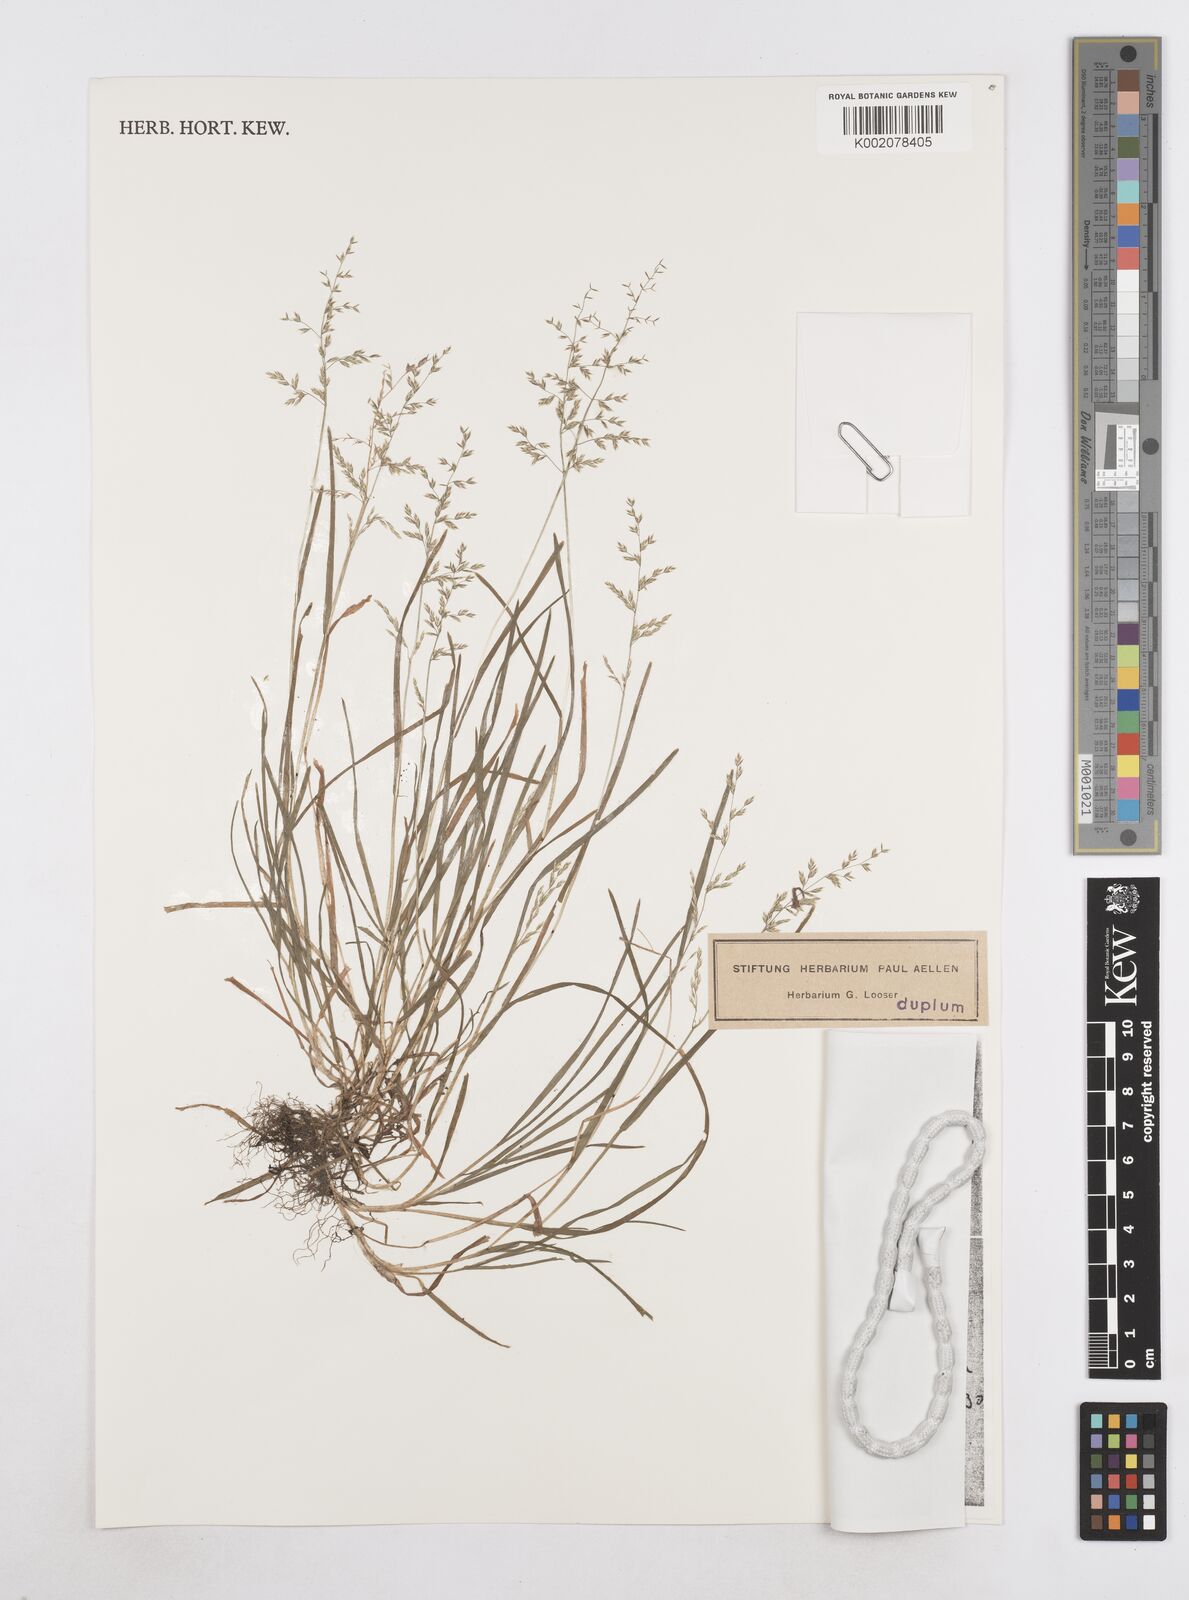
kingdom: Plantae
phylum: Tracheophyta
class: Liliopsida
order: Poales
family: Poaceae
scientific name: Poaceae
